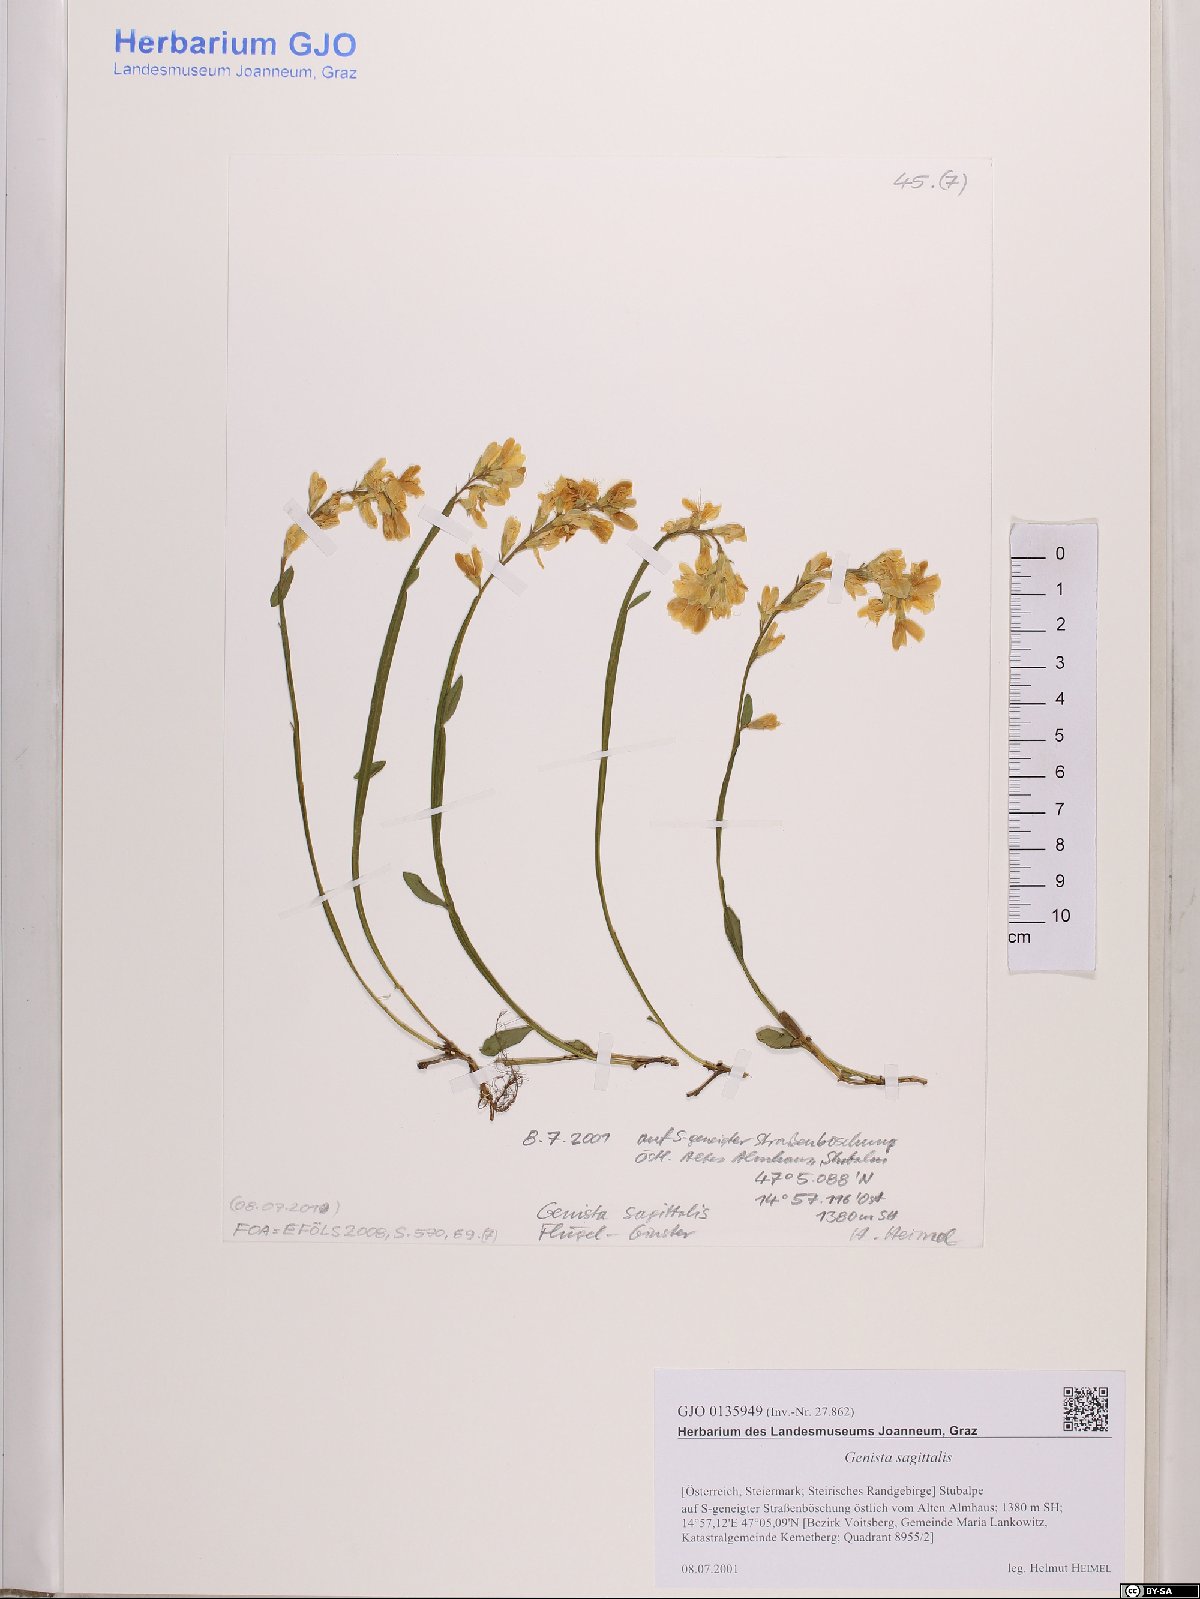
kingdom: Plantae
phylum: Tracheophyta
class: Magnoliopsida
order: Fabales
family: Fabaceae
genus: Genista
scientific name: Genista sagittalis
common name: Winged greenweed
